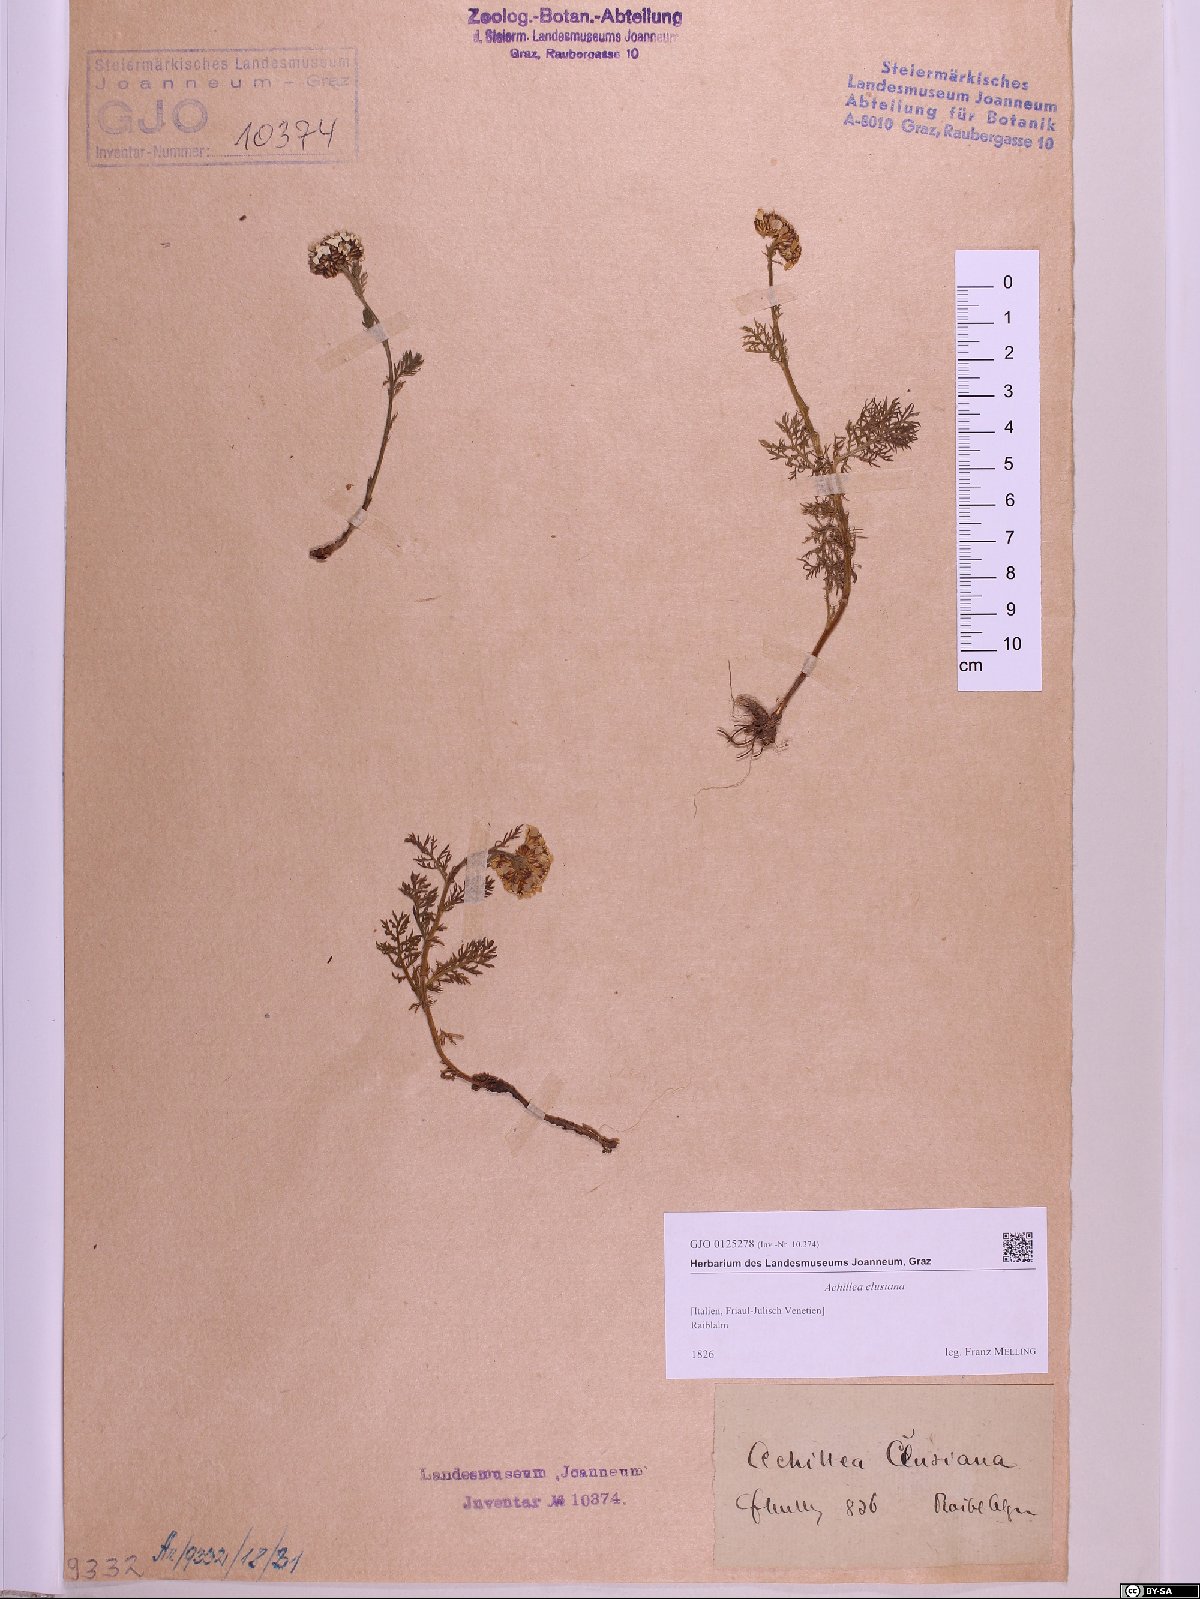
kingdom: Plantae
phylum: Tracheophyta
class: Magnoliopsida
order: Asterales
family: Asteraceae
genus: Achillea
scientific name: Achillea clusiana
